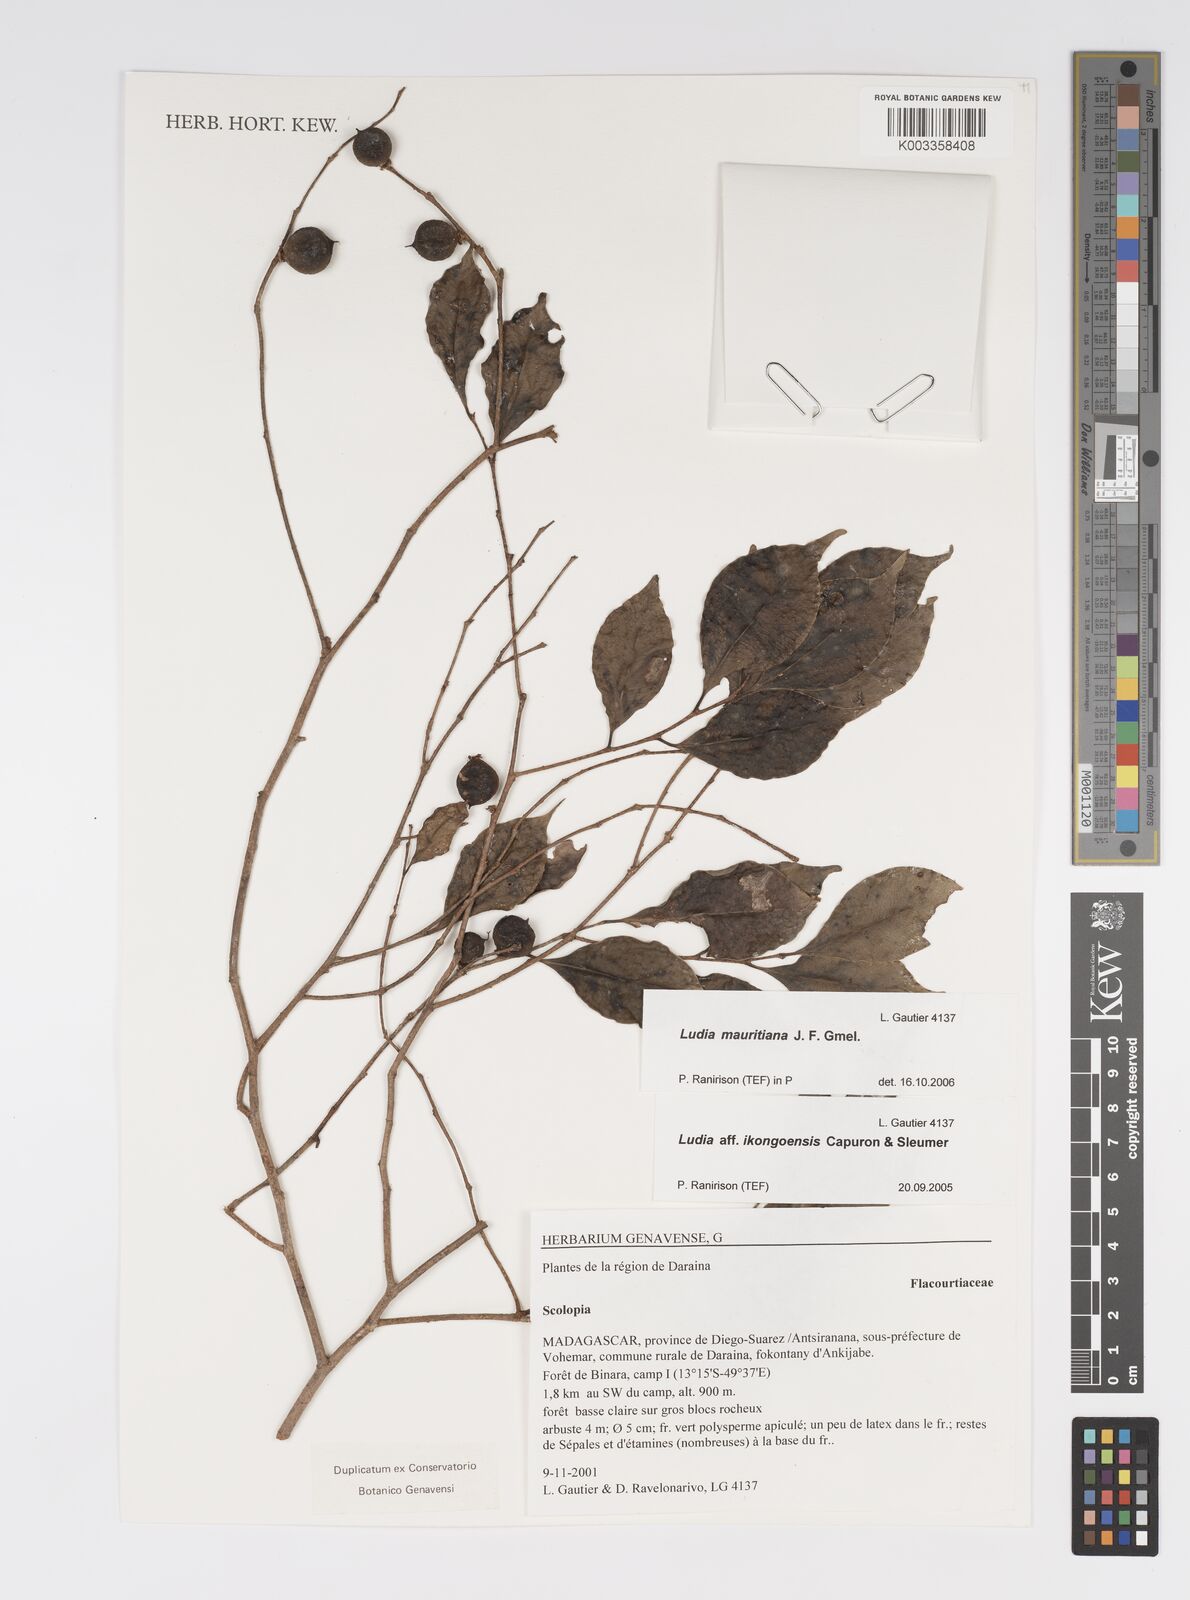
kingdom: Plantae
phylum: Tracheophyta
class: Magnoliopsida
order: Malpighiales
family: Salicaceae
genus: Ludia
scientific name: Ludia mauritiana
